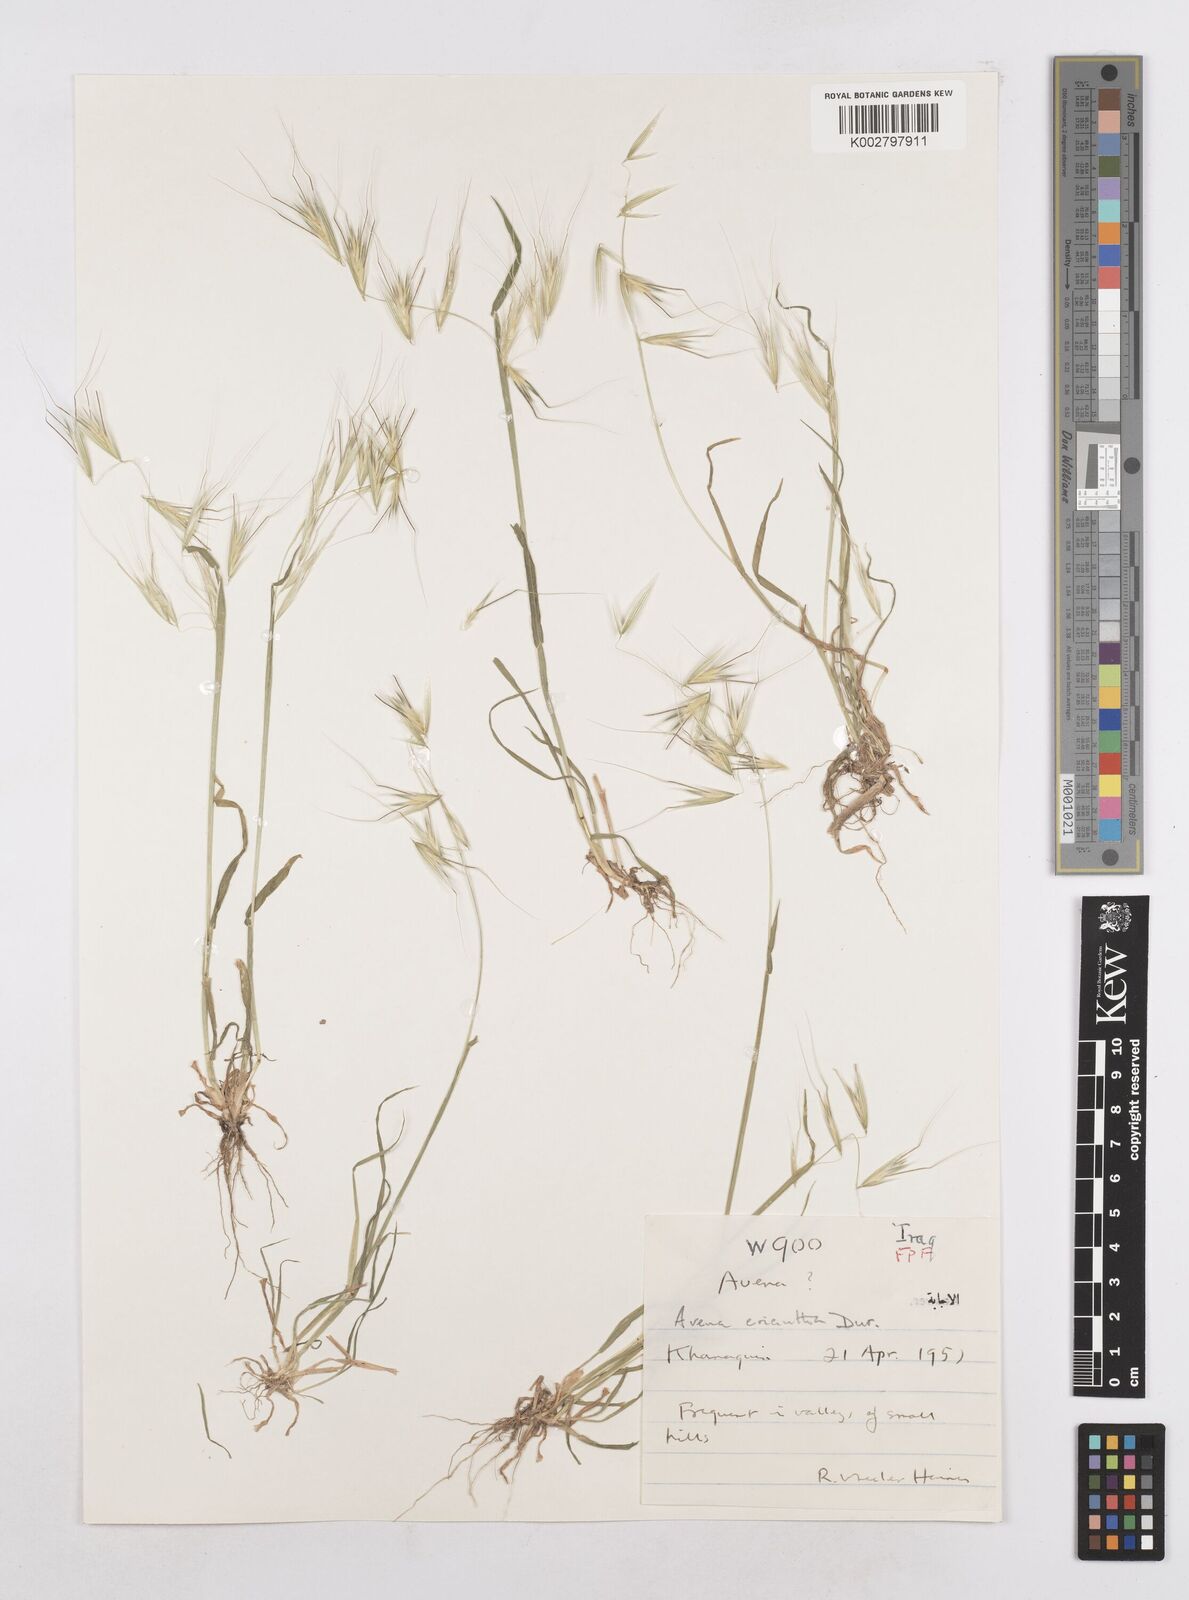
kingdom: Plantae
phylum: Tracheophyta
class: Liliopsida
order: Poales
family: Poaceae
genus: Avena
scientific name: Avena eriantha
